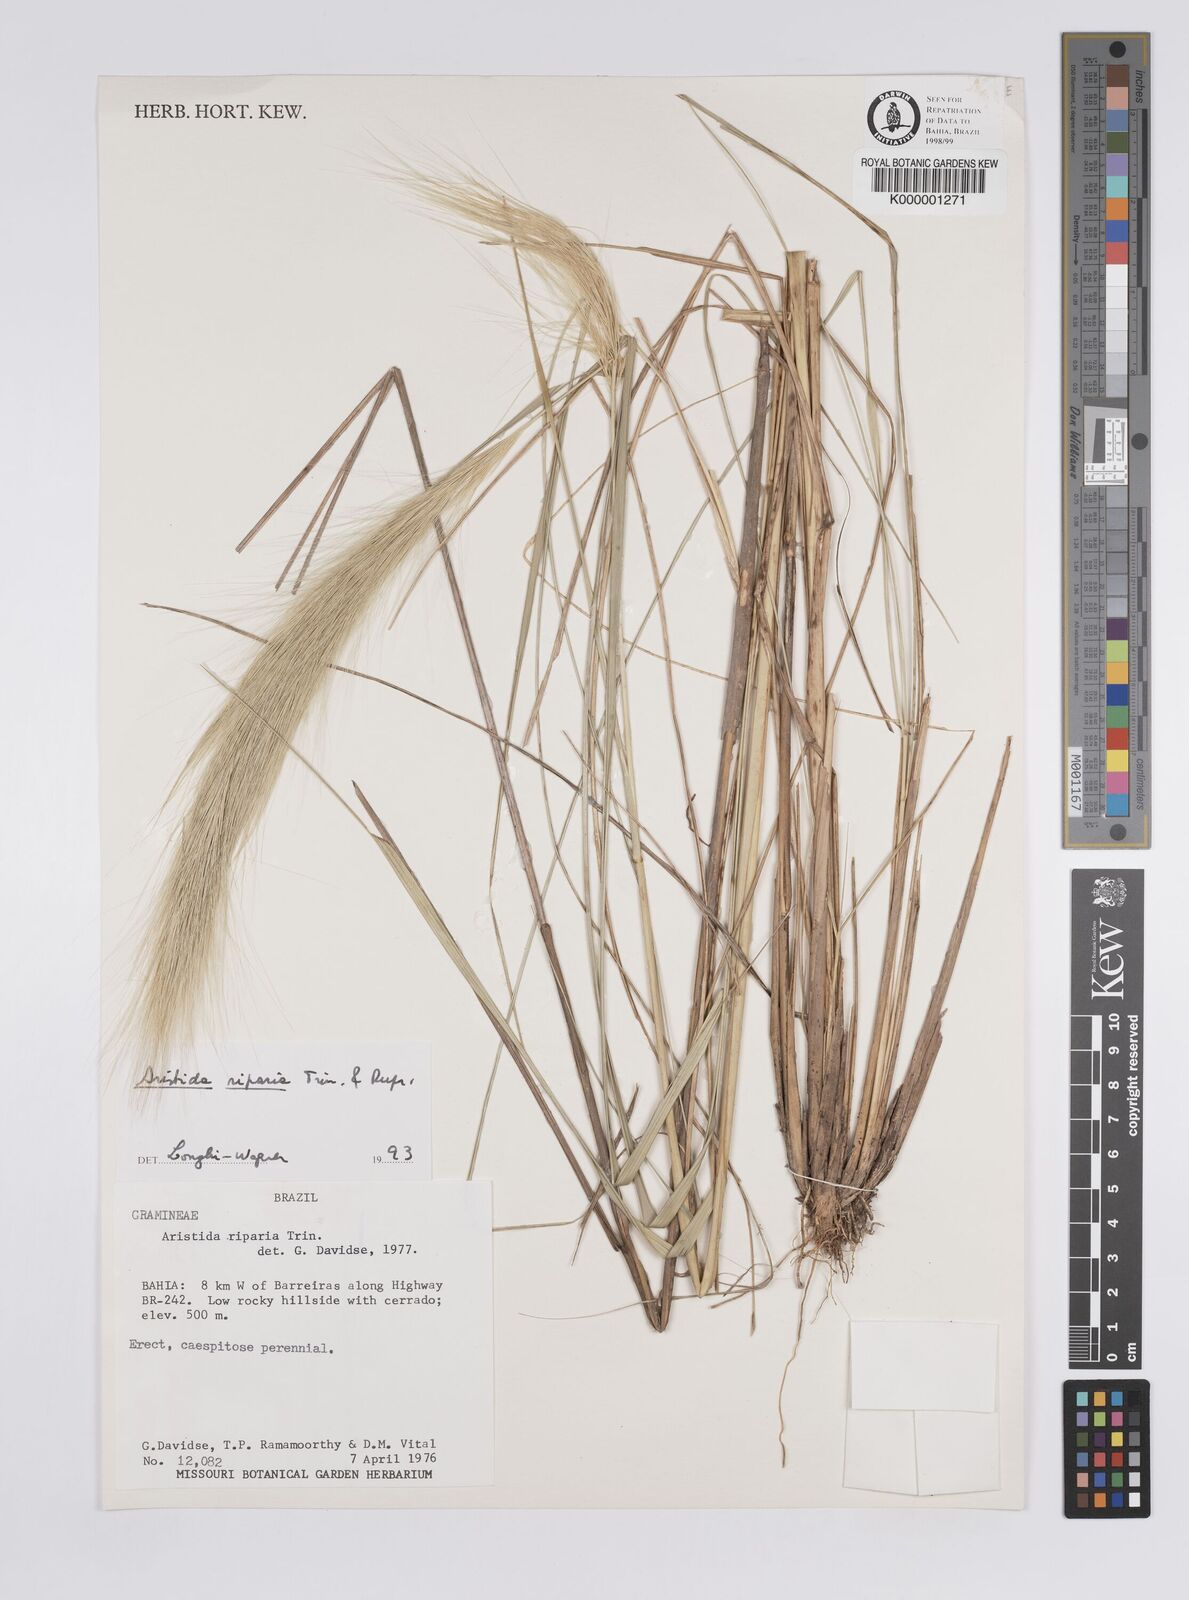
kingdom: Plantae
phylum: Tracheophyta
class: Liliopsida
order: Poales
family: Poaceae
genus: Aristida
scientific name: Aristida riparia
